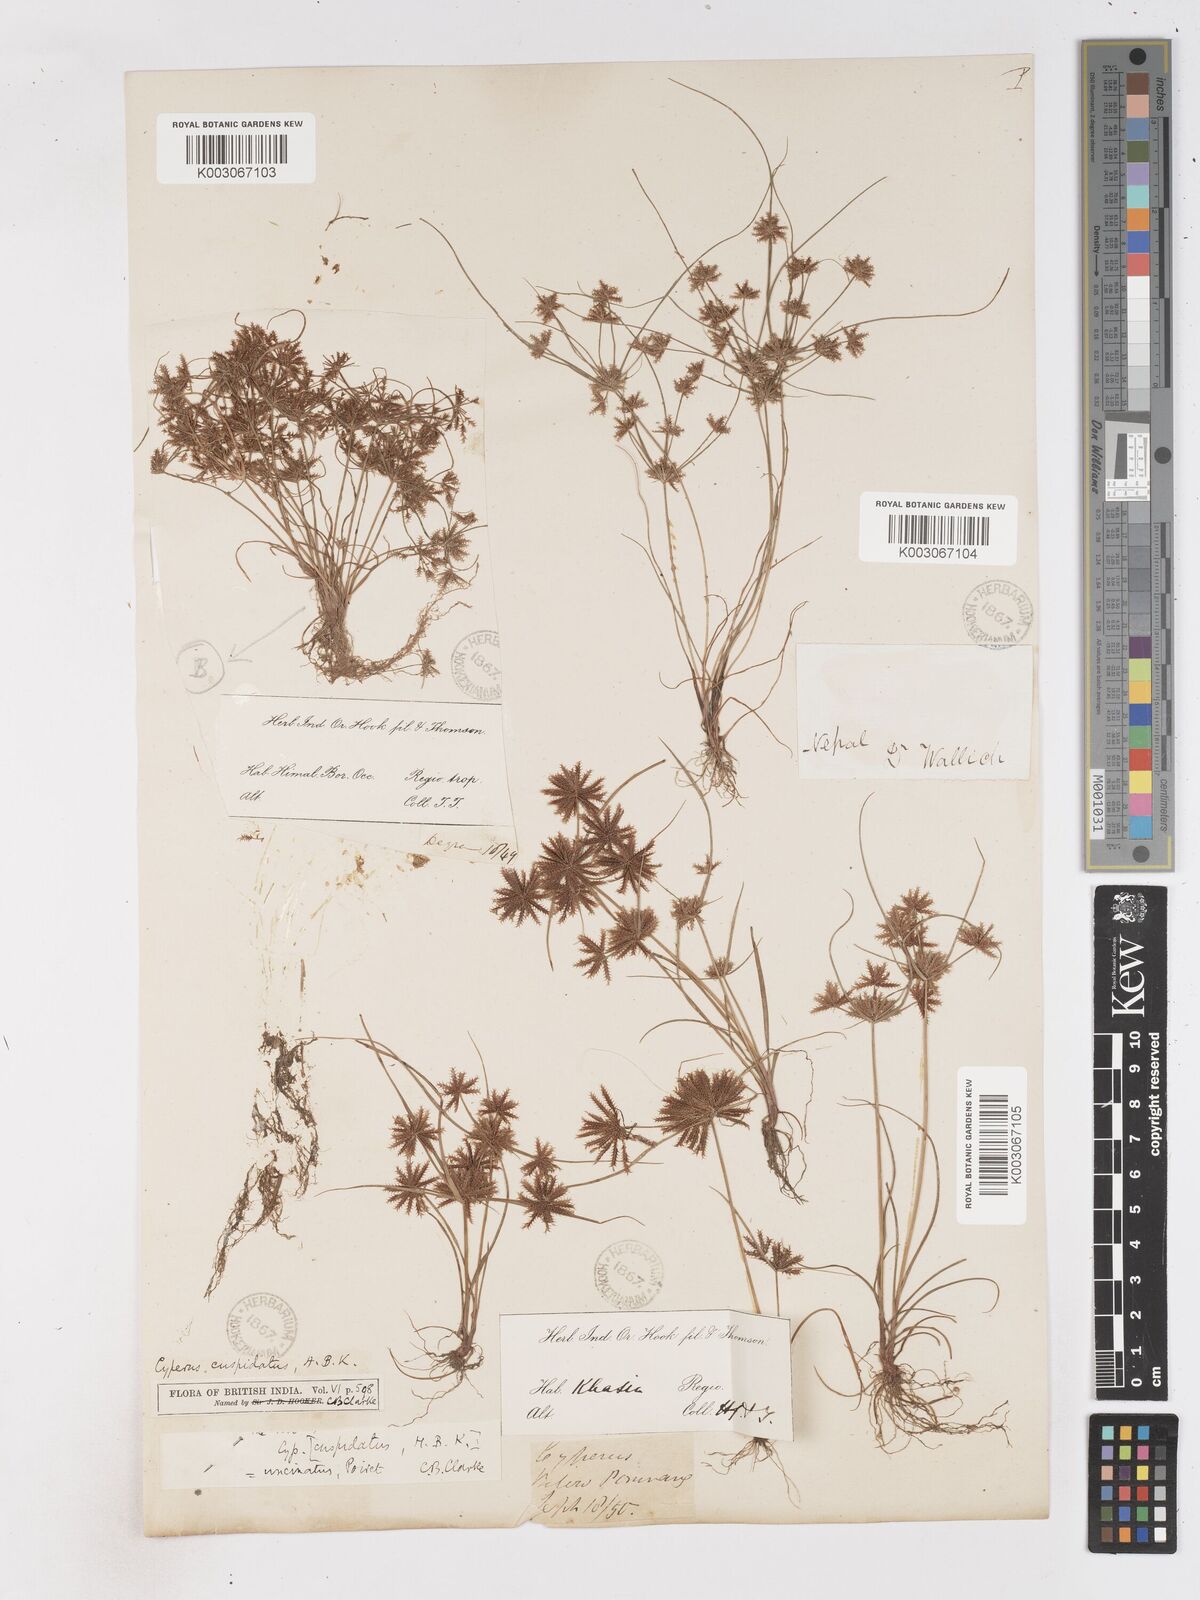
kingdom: Plantae
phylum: Tracheophyta
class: Liliopsida
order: Poales
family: Cyperaceae
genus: Cyperus
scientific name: Cyperus cuspidatus
